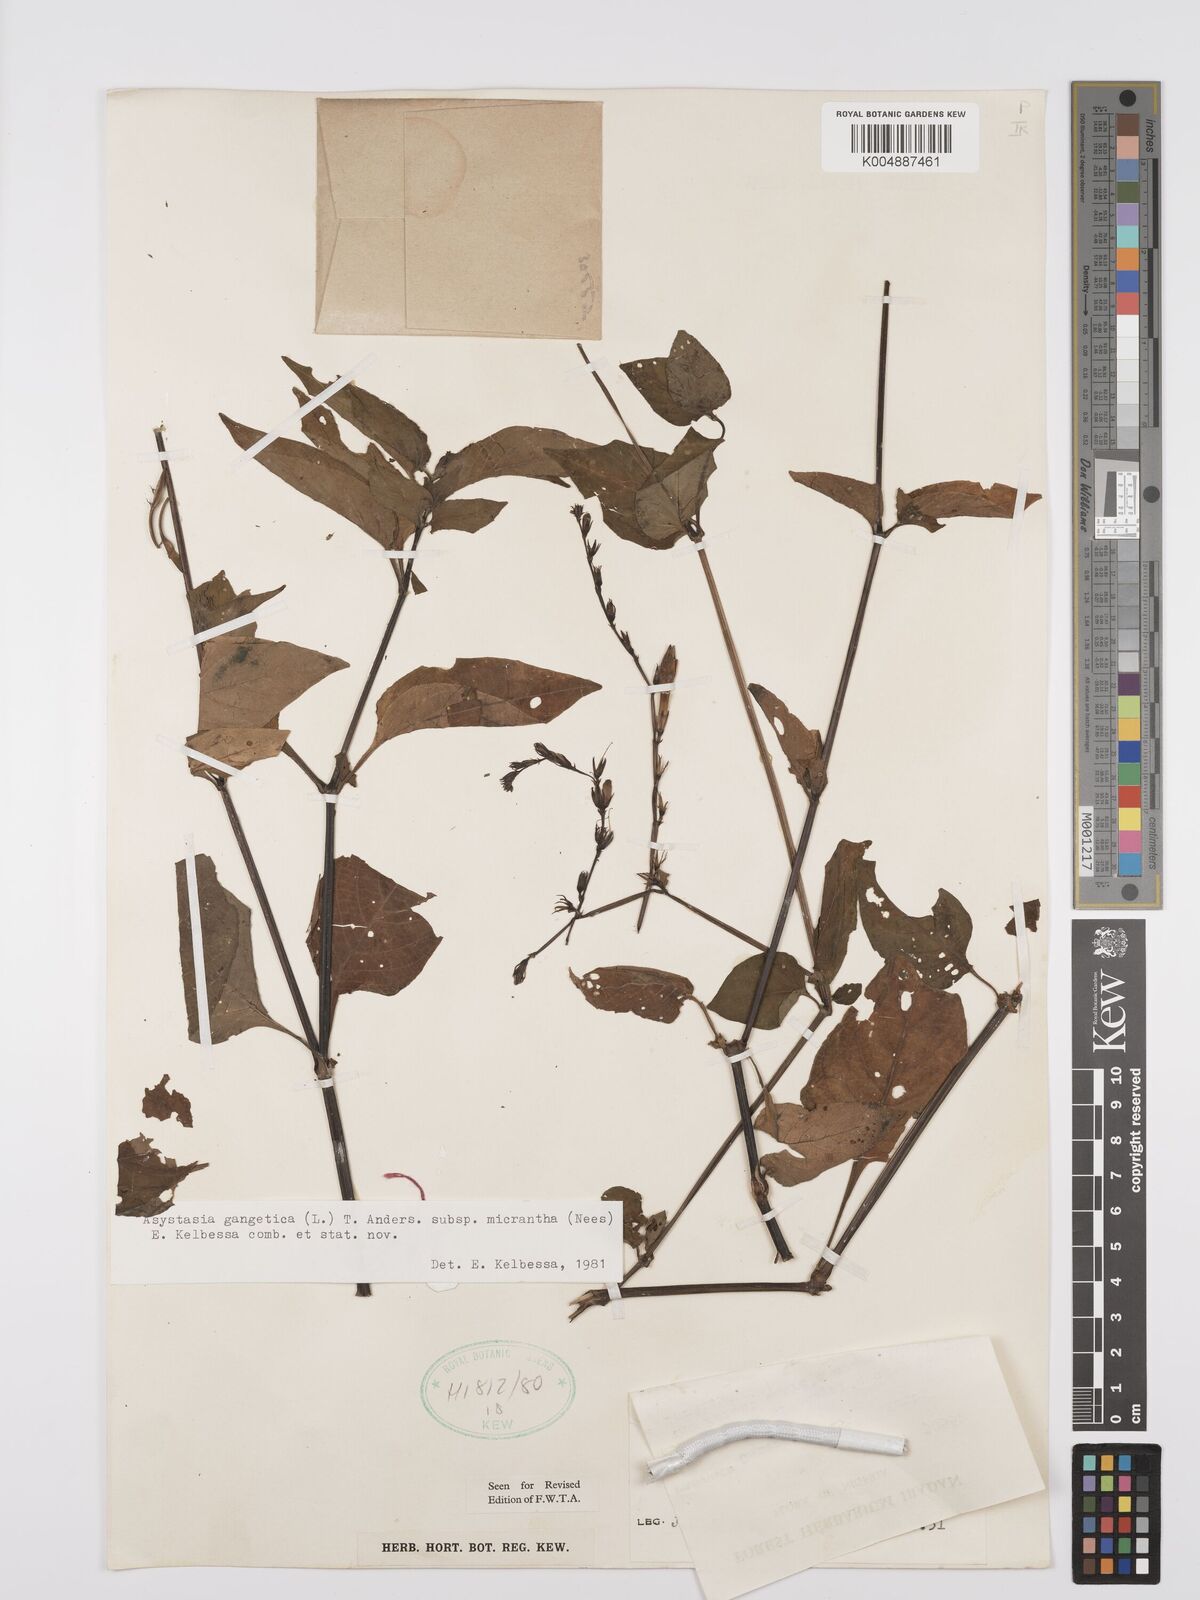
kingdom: Plantae
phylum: Tracheophyta
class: Magnoliopsida
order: Lamiales
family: Acanthaceae
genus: Asystasia
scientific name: Asystasia intrusa
